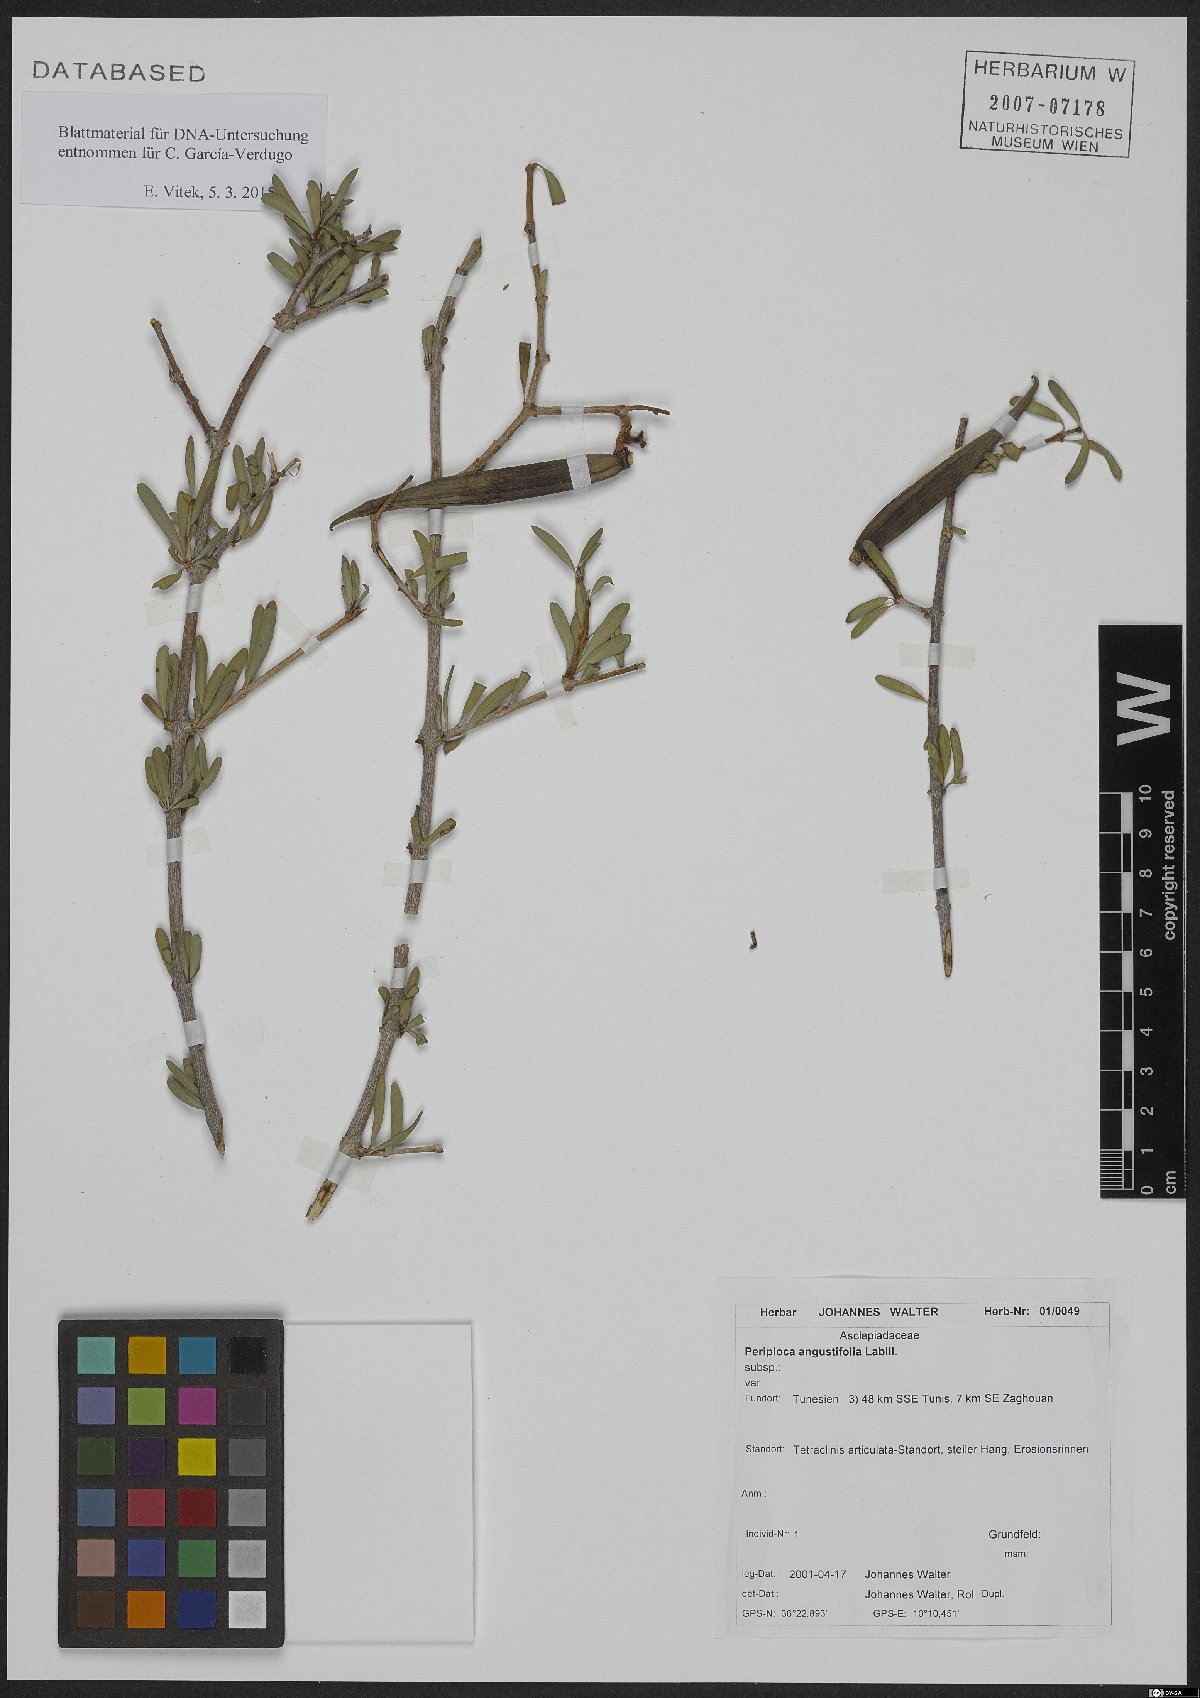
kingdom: Plantae
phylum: Tracheophyta
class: Magnoliopsida
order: Gentianales
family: Apocynaceae
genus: Periploca
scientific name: Periploca laevigata
